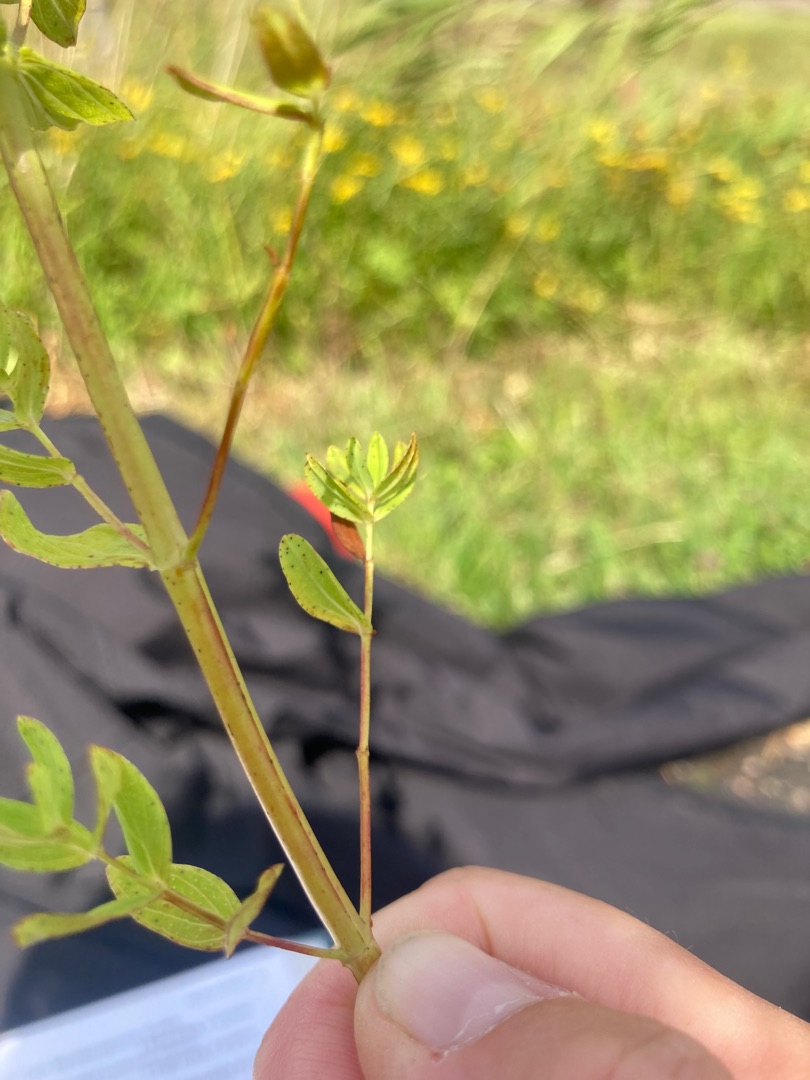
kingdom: Plantae
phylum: Tracheophyta
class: Magnoliopsida
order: Malpighiales
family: Hypericaceae
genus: Hypericum
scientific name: Hypericum perforatum
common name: Prikbladet perikon
